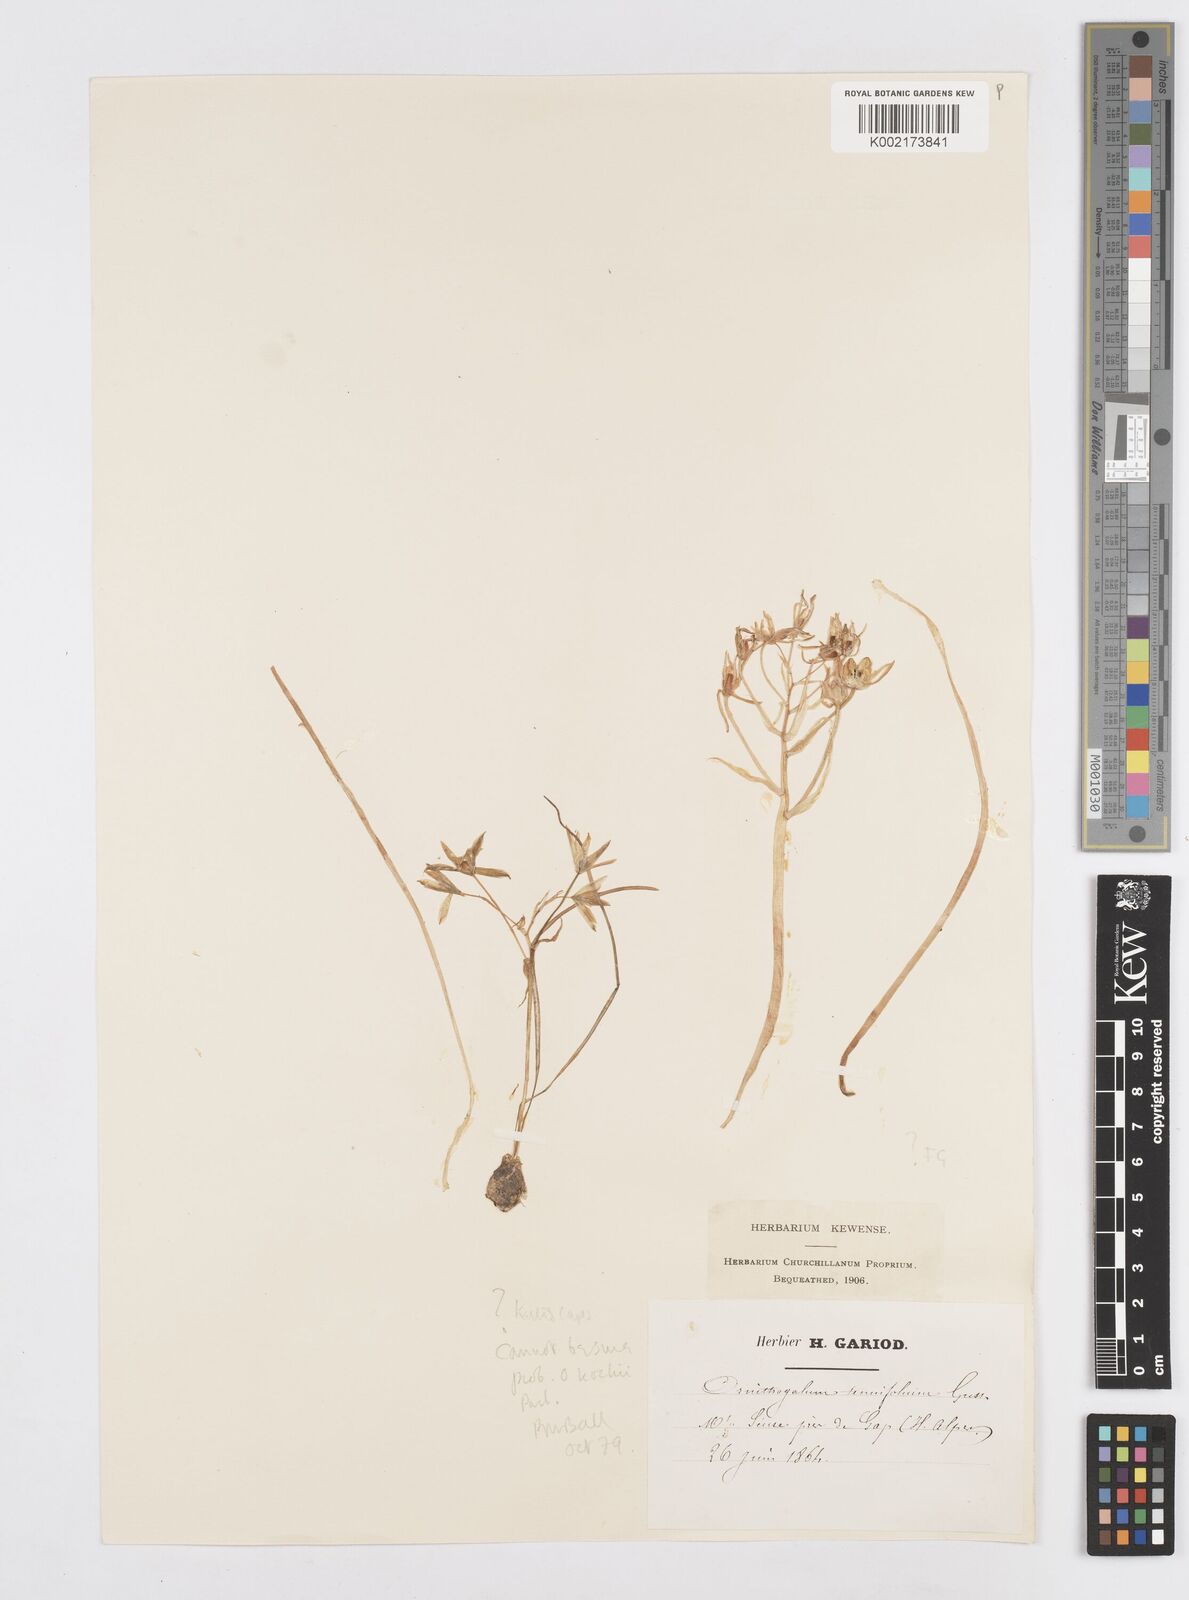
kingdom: Plantae
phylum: Tracheophyta
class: Liliopsida
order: Asparagales
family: Asparagaceae
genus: Ornithogalum
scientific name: Ornithogalum orthophyllum
